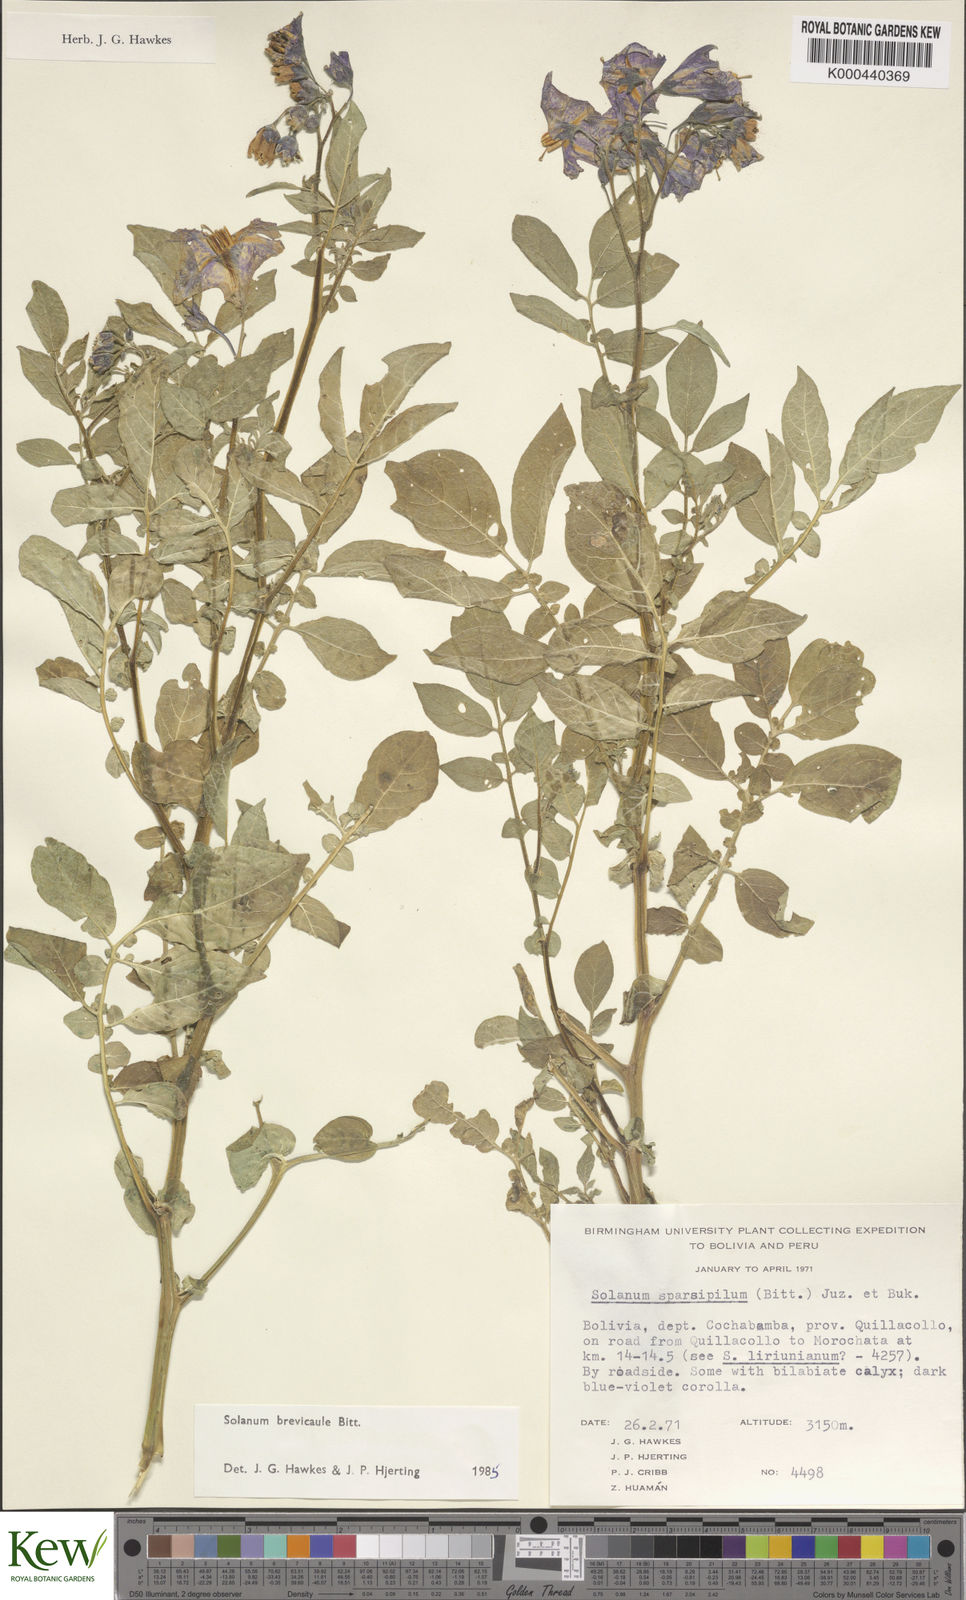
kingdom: Plantae
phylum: Tracheophyta
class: Magnoliopsida
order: Solanales
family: Solanaceae
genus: Solanum
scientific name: Solanum brevicaule
